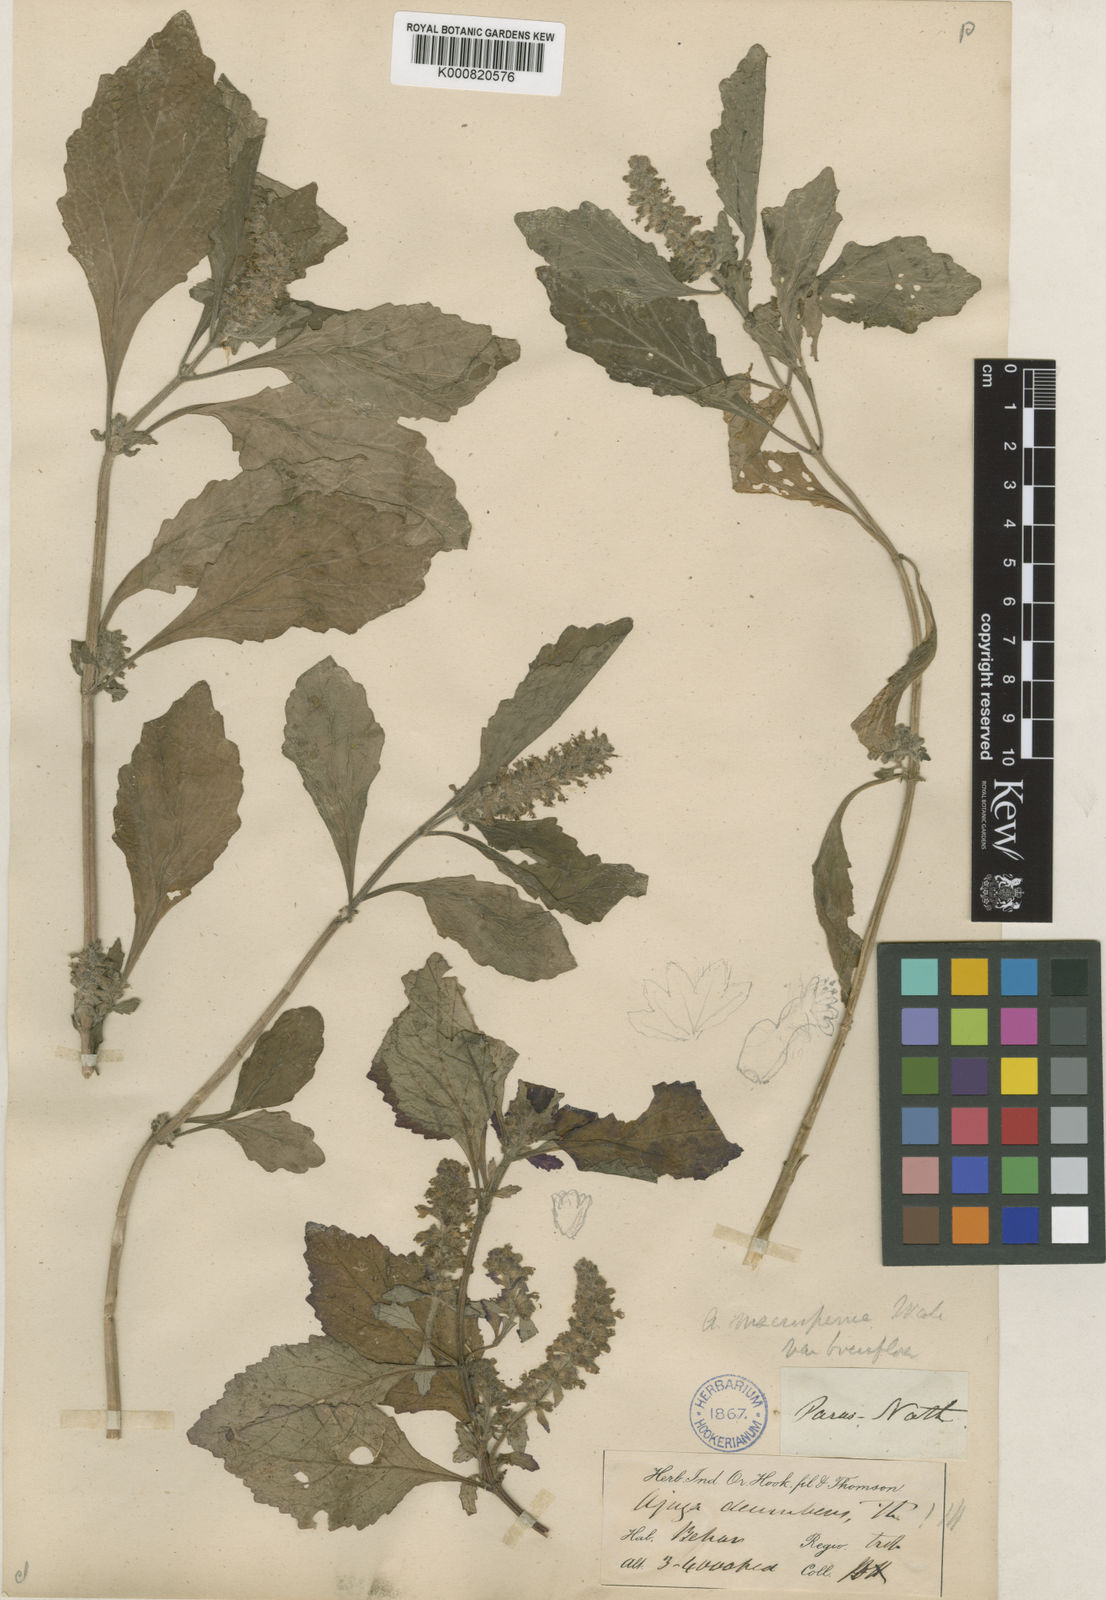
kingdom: Plantae
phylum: Tracheophyta
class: Magnoliopsida
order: Lamiales
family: Lamiaceae
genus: Ajuga
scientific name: Ajuga macrosperma
